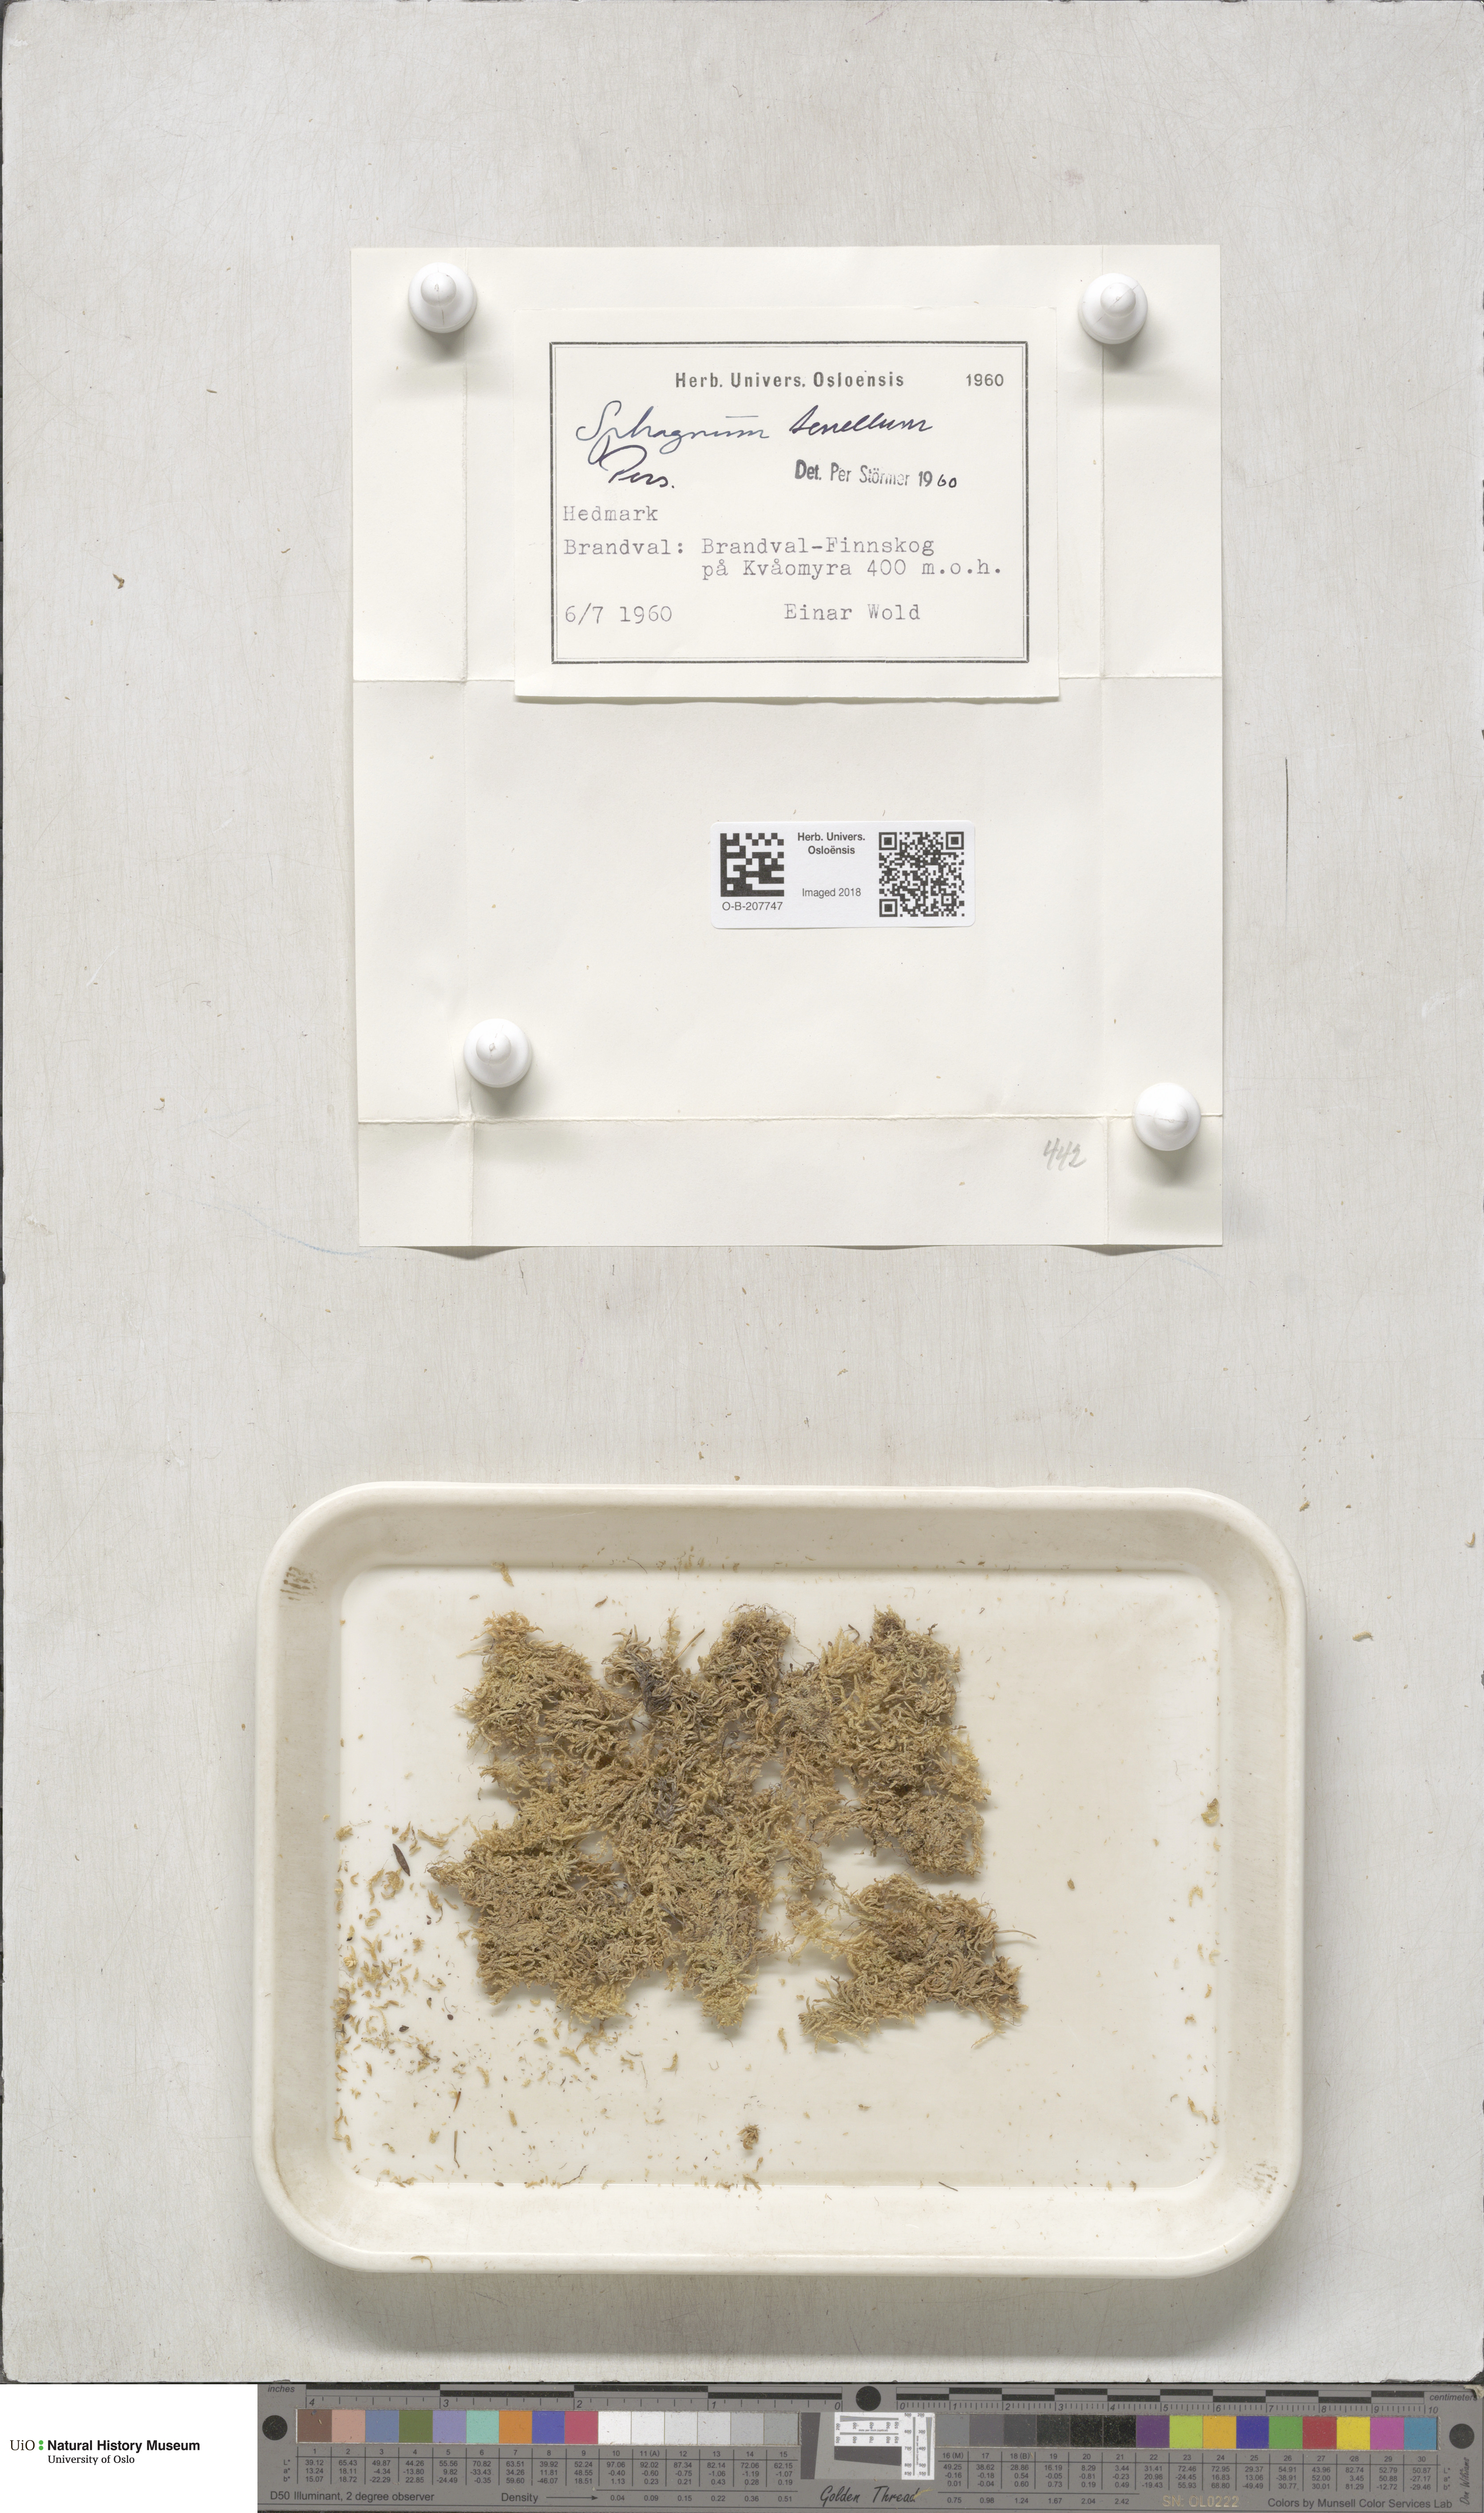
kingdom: Plantae
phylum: Bryophyta
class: Sphagnopsida
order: Sphagnales
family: Sphagnaceae
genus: Sphagnum
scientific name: Sphagnum tenellum
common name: Soft bog-moss
